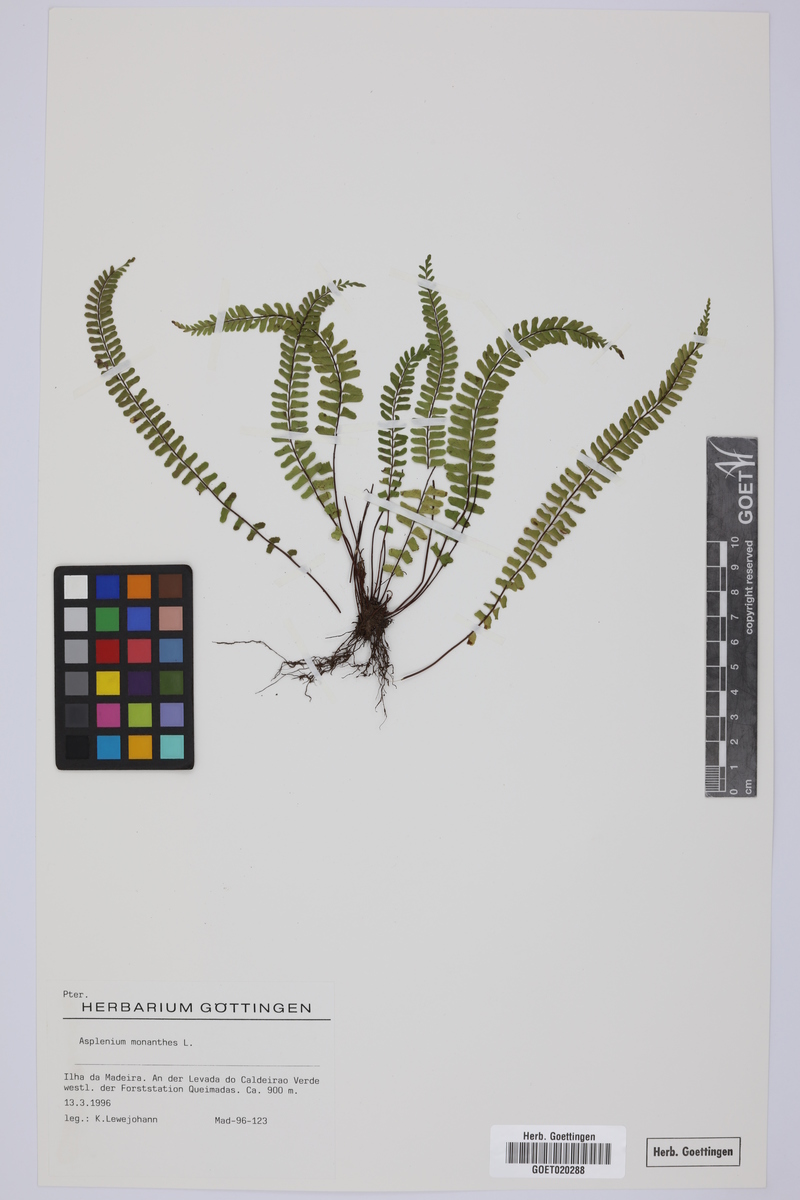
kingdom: Plantae
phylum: Tracheophyta
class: Polypodiopsida
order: Polypodiales
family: Aspleniaceae
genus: Asplenium
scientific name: Asplenium monanthes
